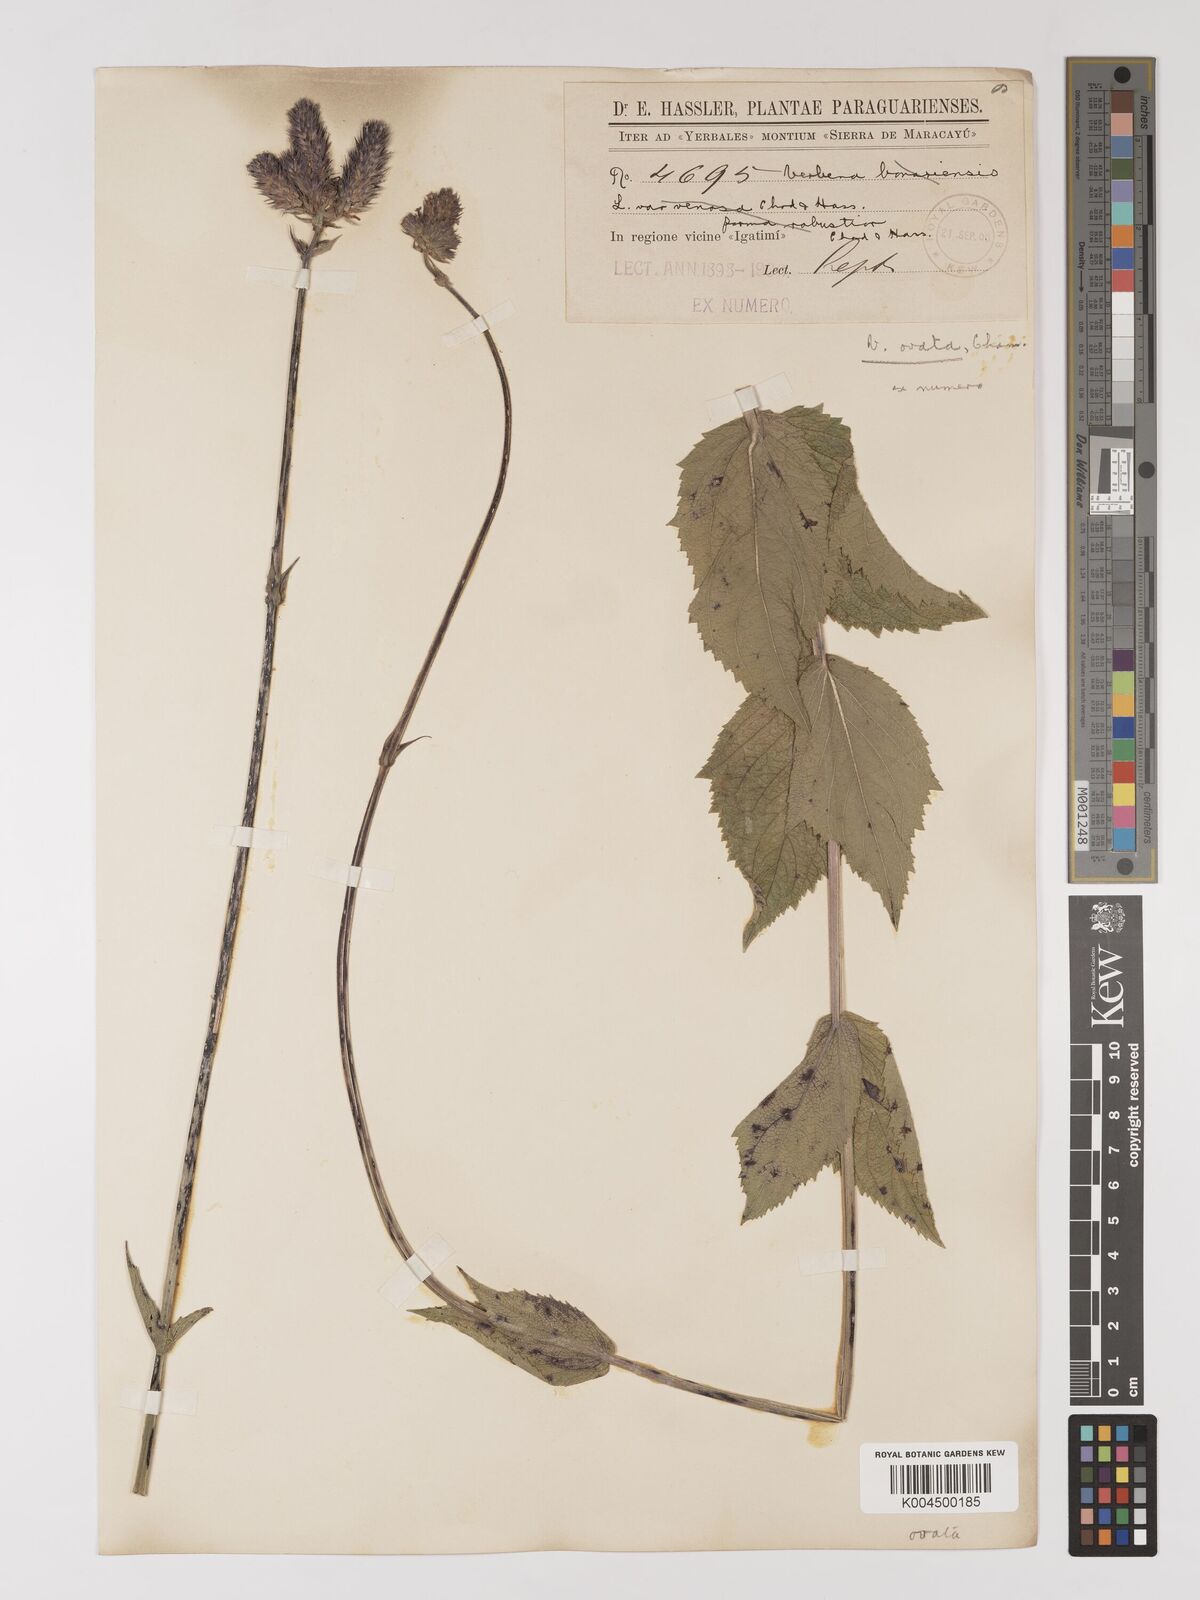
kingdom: Plantae
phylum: Tracheophyta
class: Magnoliopsida
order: Lamiales
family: Verbenaceae
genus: Verbena
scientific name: Verbena ovata
